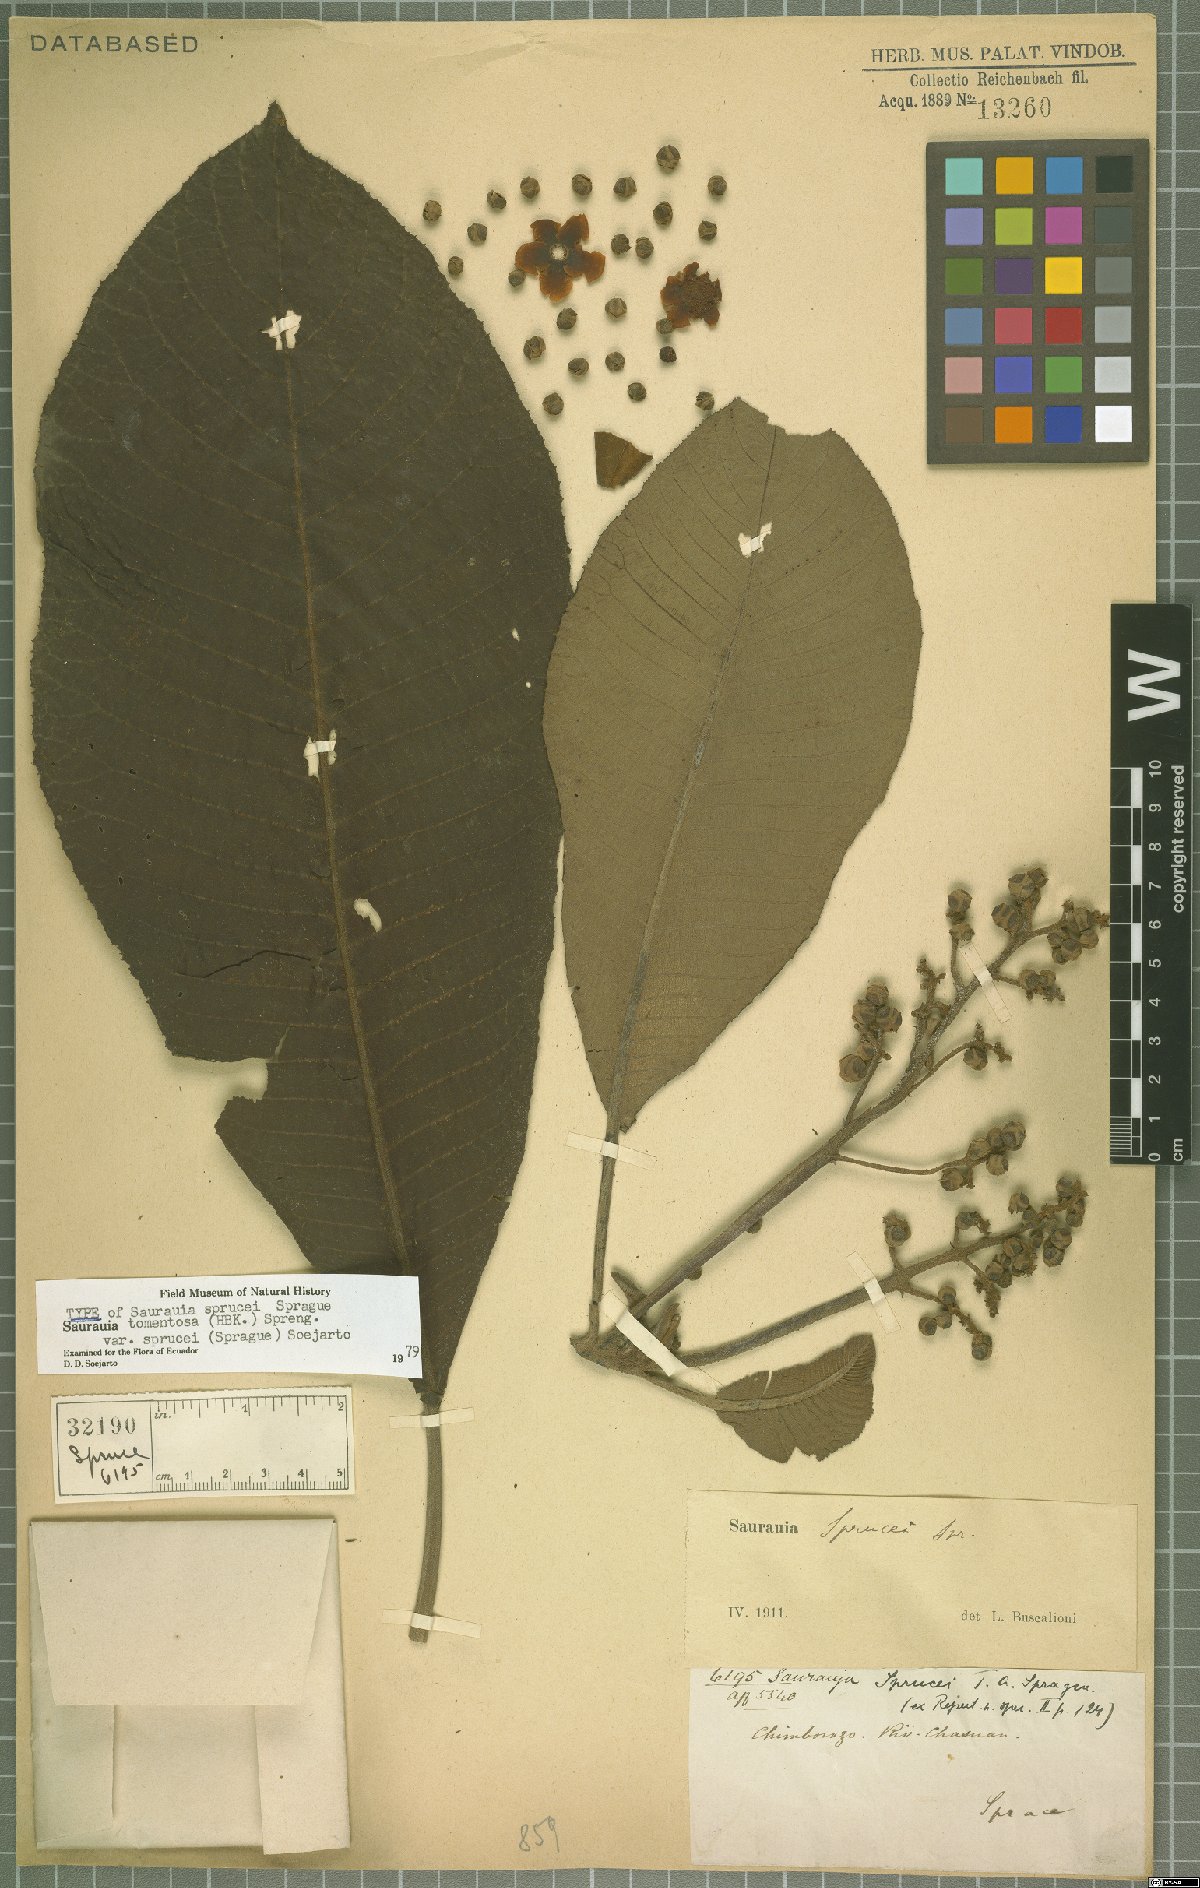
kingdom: Plantae
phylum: Tracheophyta
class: Magnoliopsida
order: Ericales
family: Actinidiaceae
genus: Saurauia
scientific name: Saurauia tomentosa
